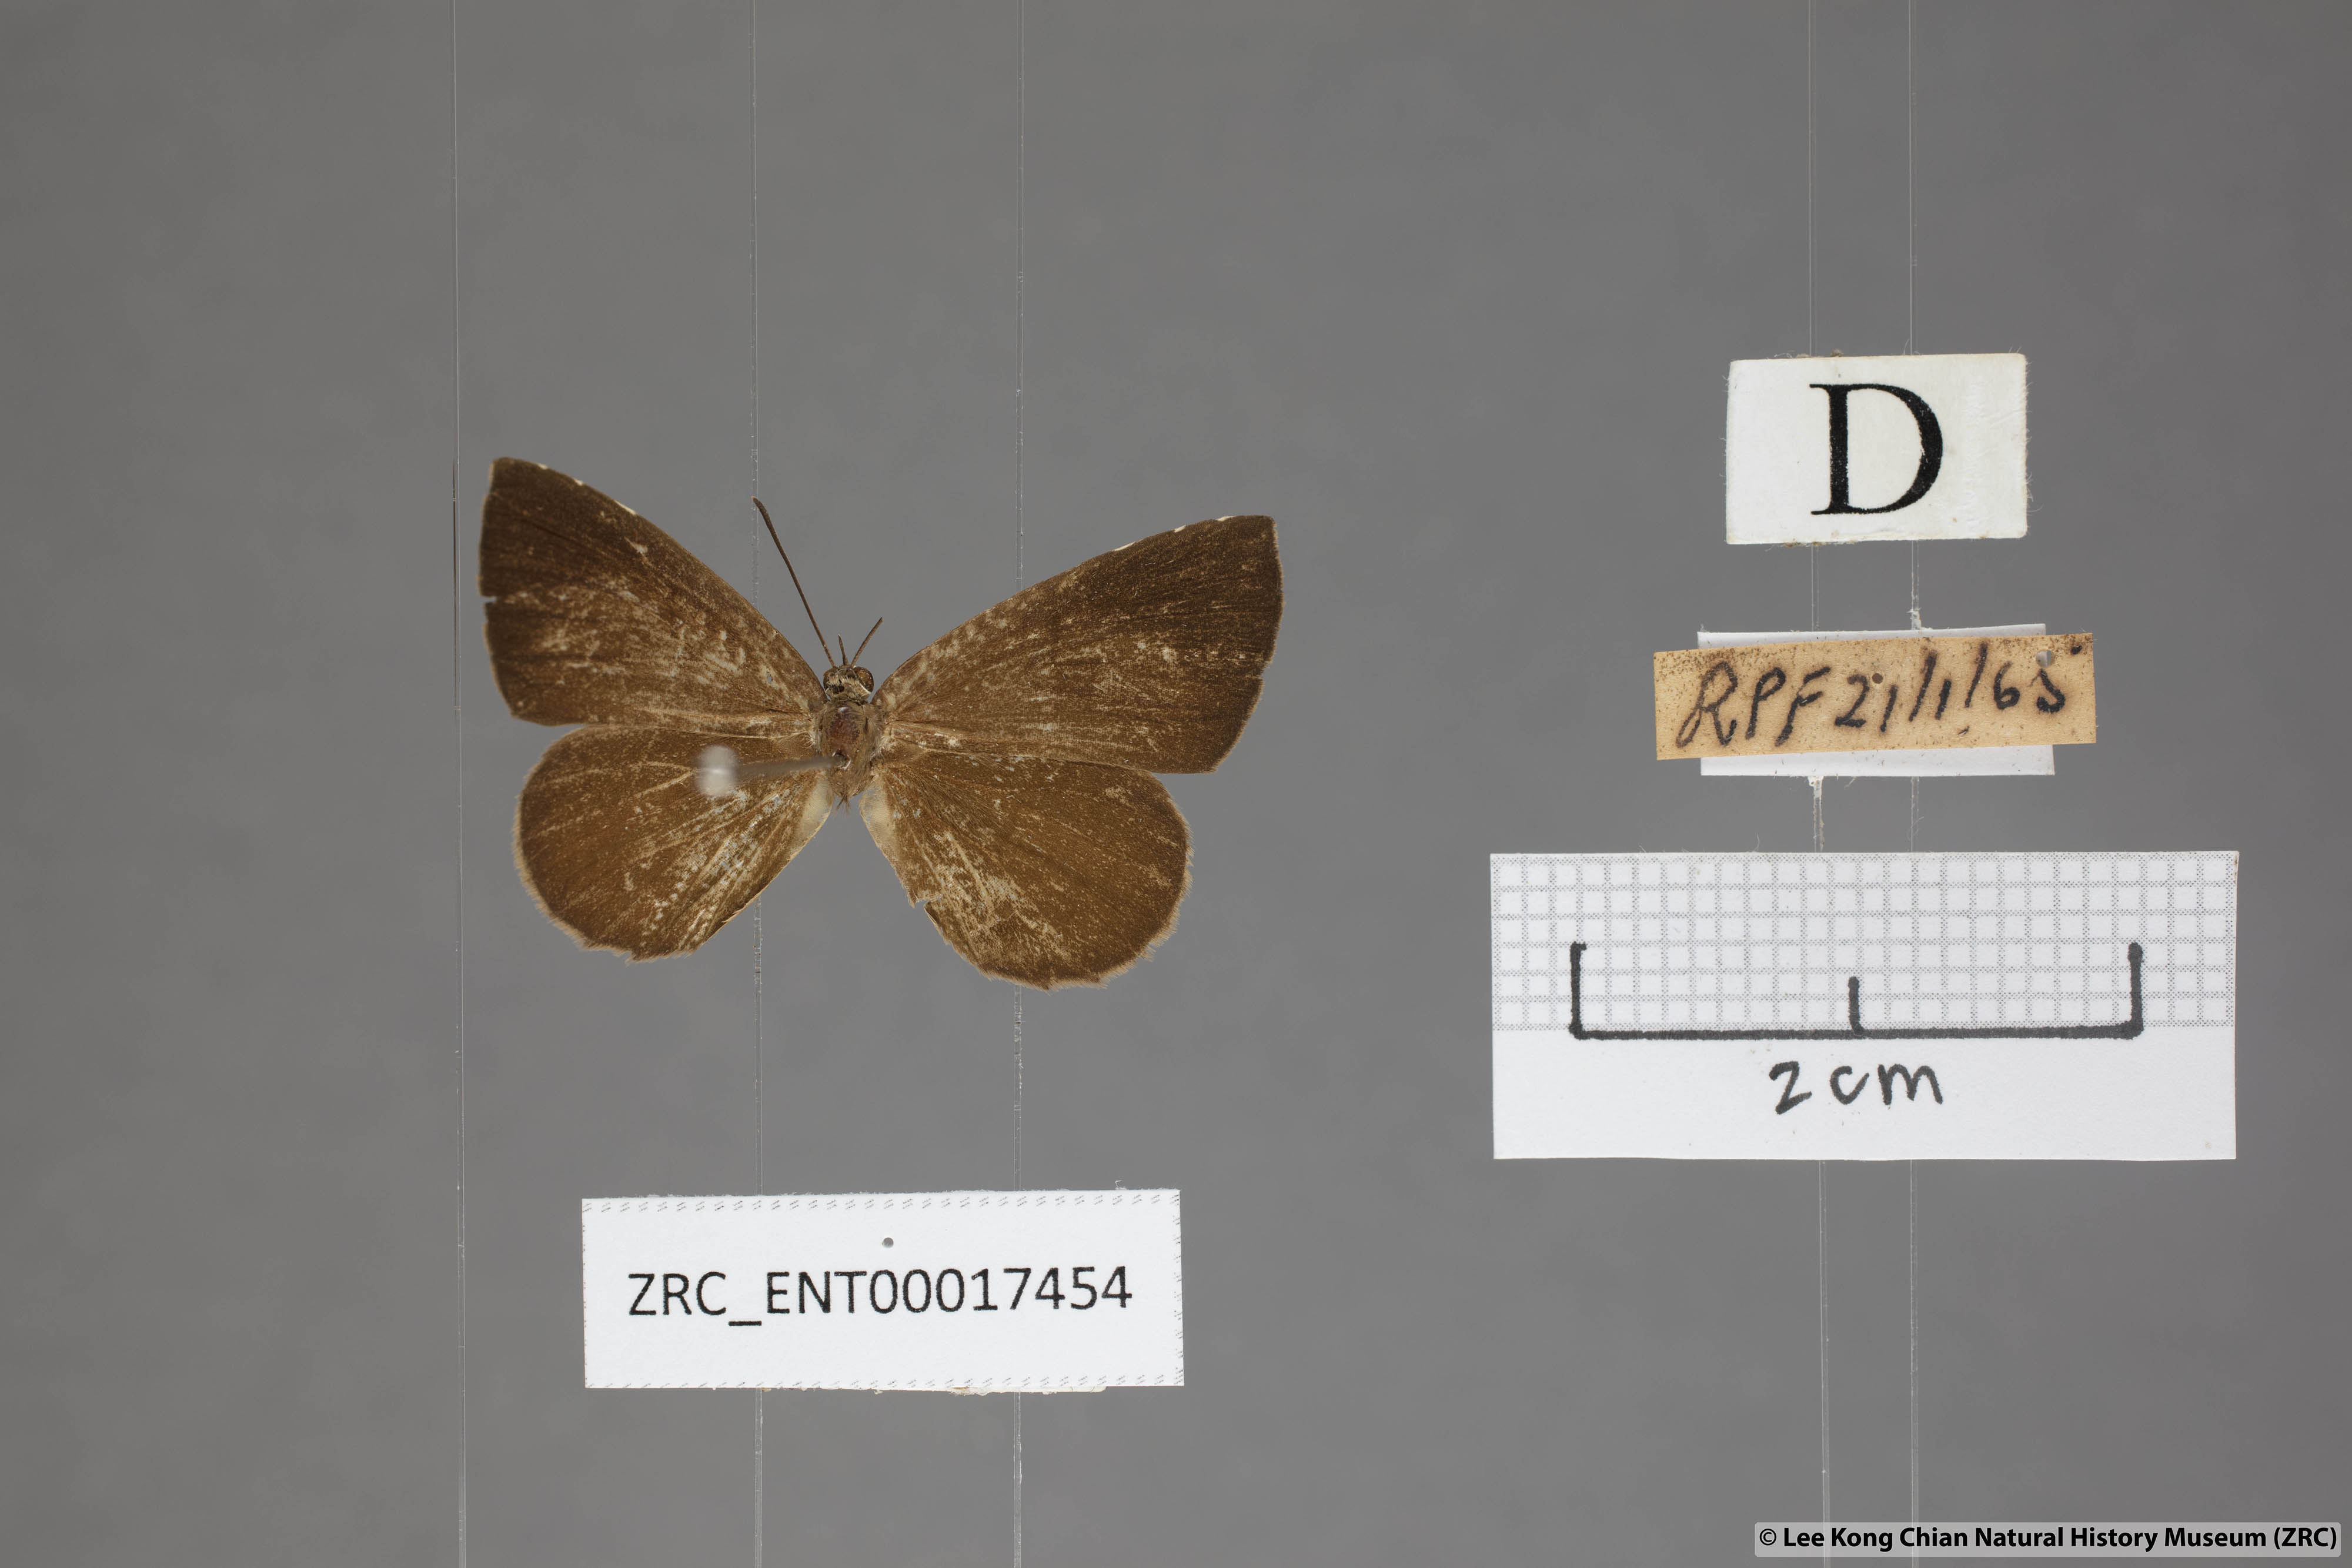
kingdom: Animalia
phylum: Arthropoda
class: Insecta
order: Lepidoptera
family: Lycaenidae
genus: Miletus
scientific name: Miletus gaesa
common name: Brown brownie
